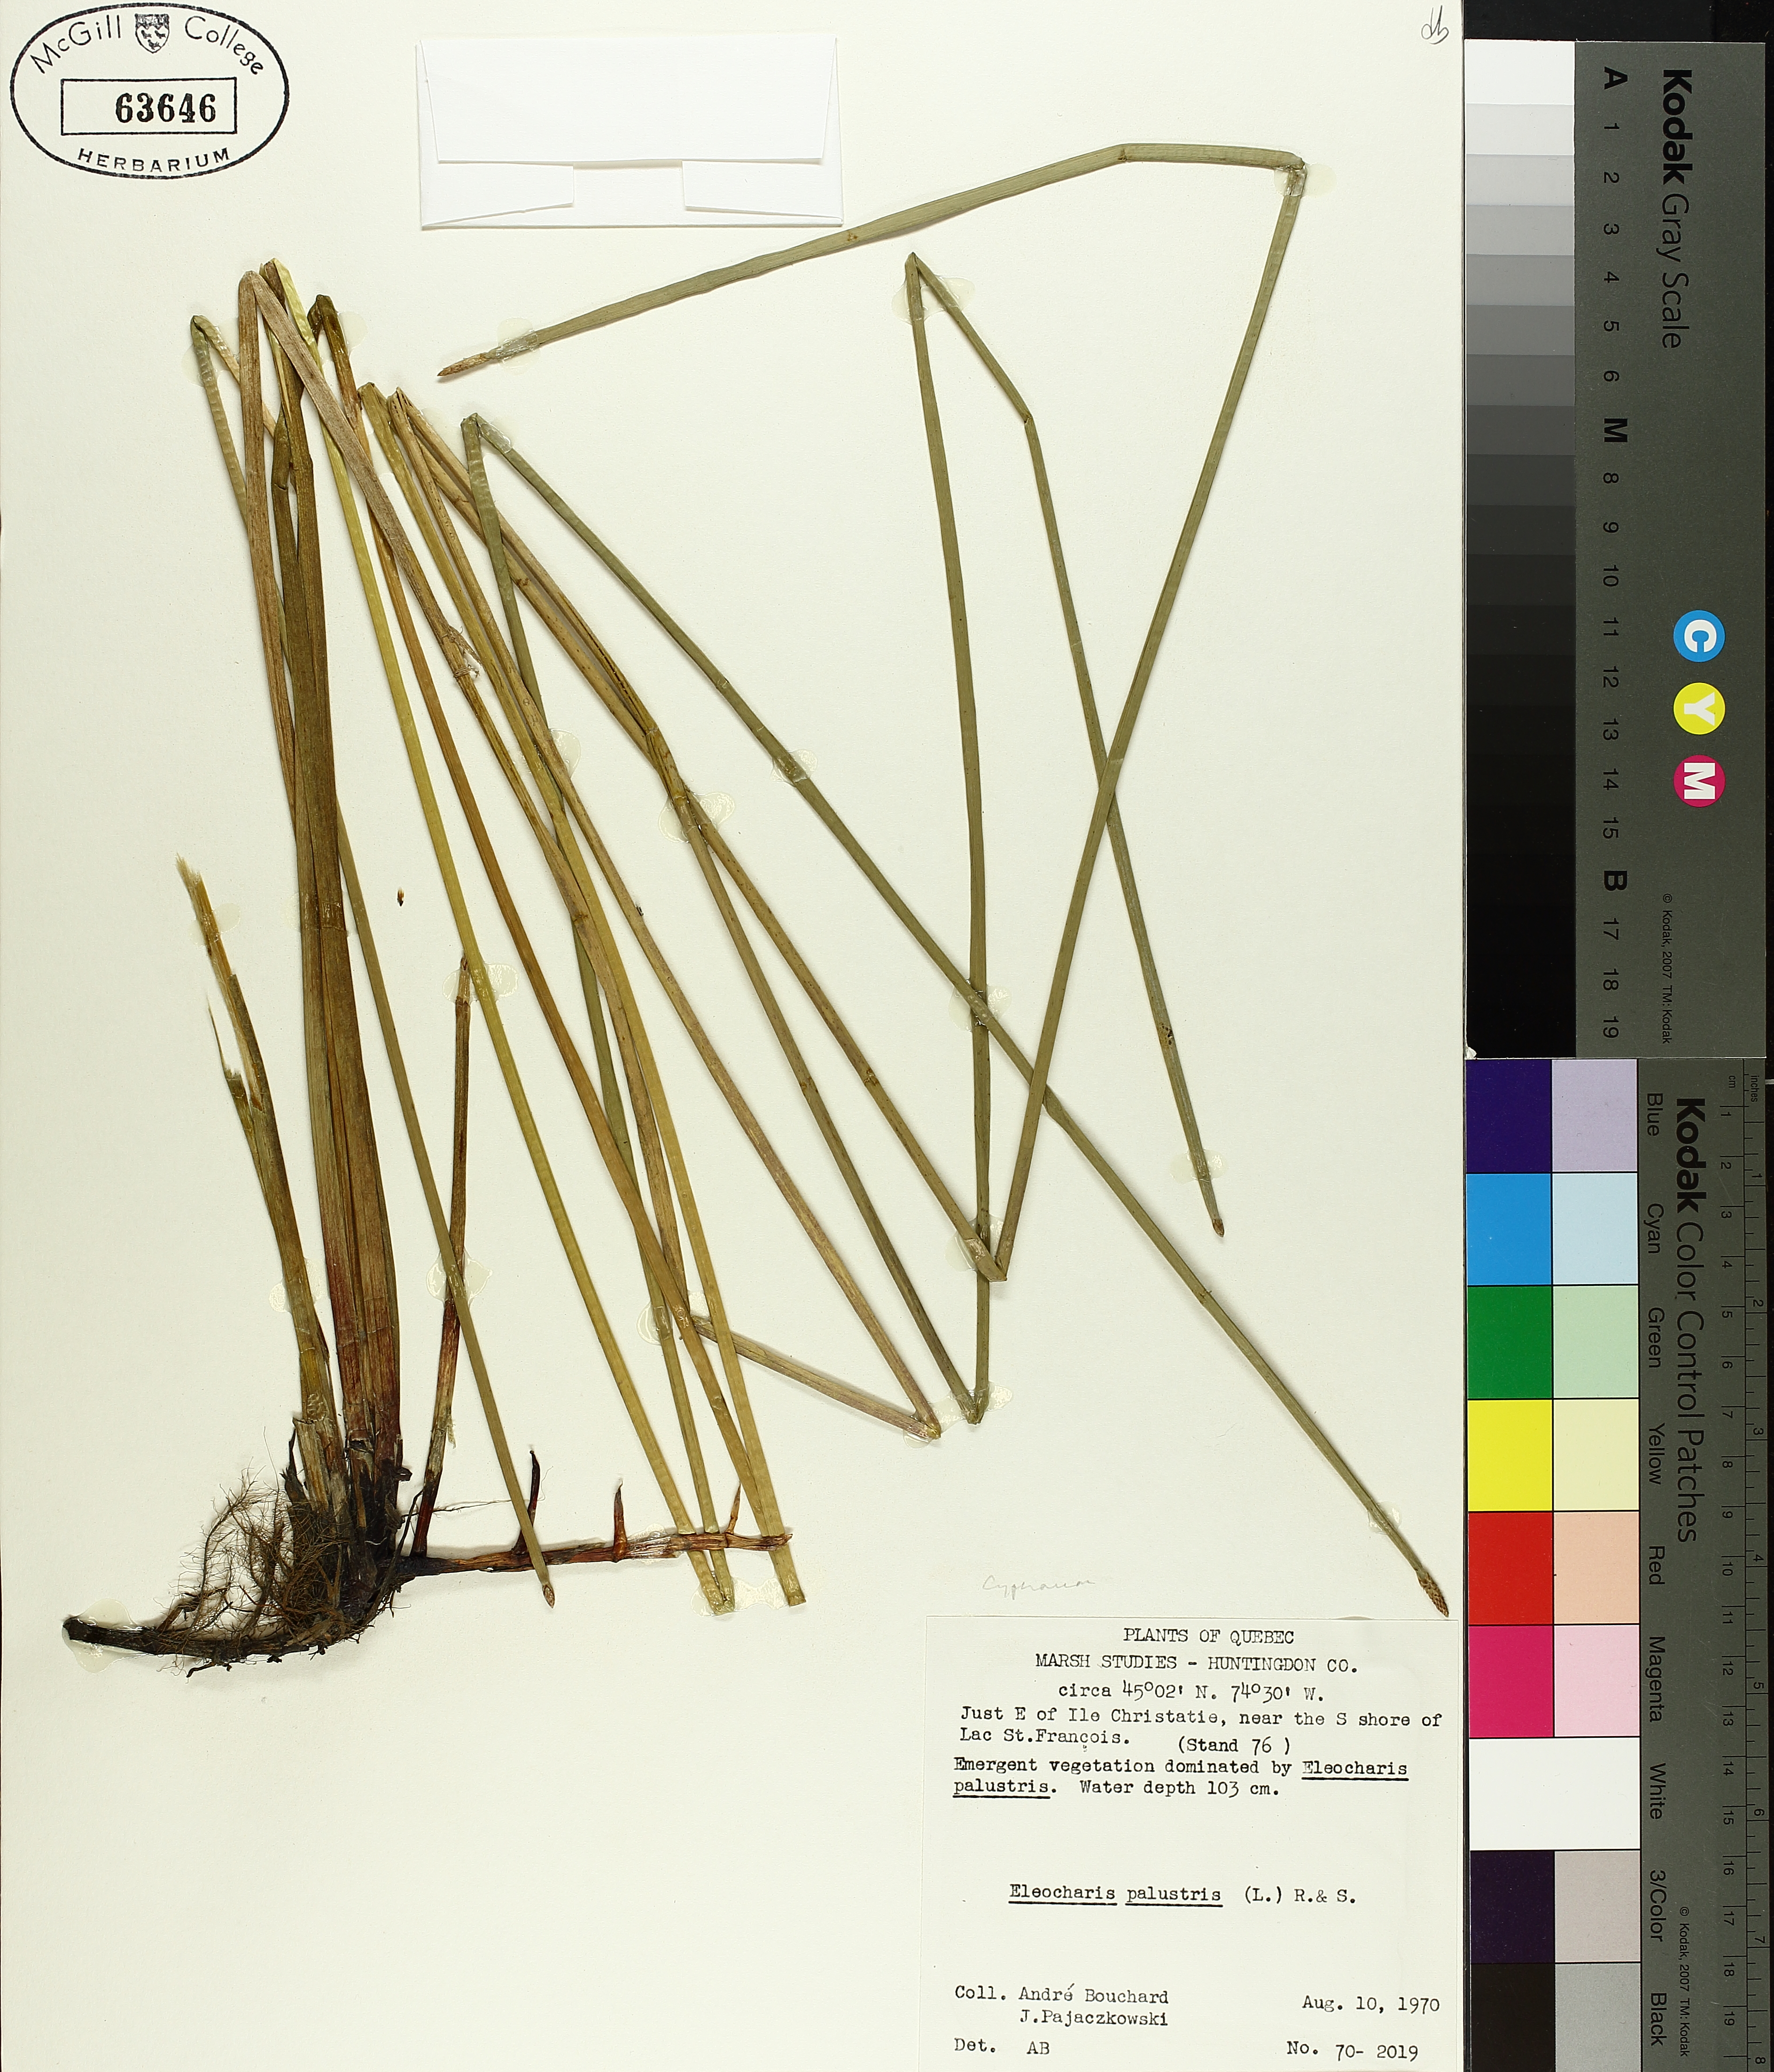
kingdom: Plantae
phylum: Tracheophyta
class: Liliopsida
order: Poales
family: Cyperaceae
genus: Eleocharis
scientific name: Eleocharis palustris
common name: Common spike-rush
